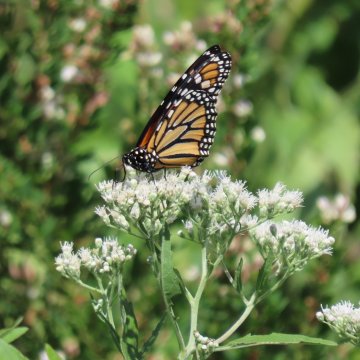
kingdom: Animalia
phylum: Arthropoda
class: Insecta
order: Lepidoptera
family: Nymphalidae
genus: Danaus
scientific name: Danaus plexippus
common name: Monarch
